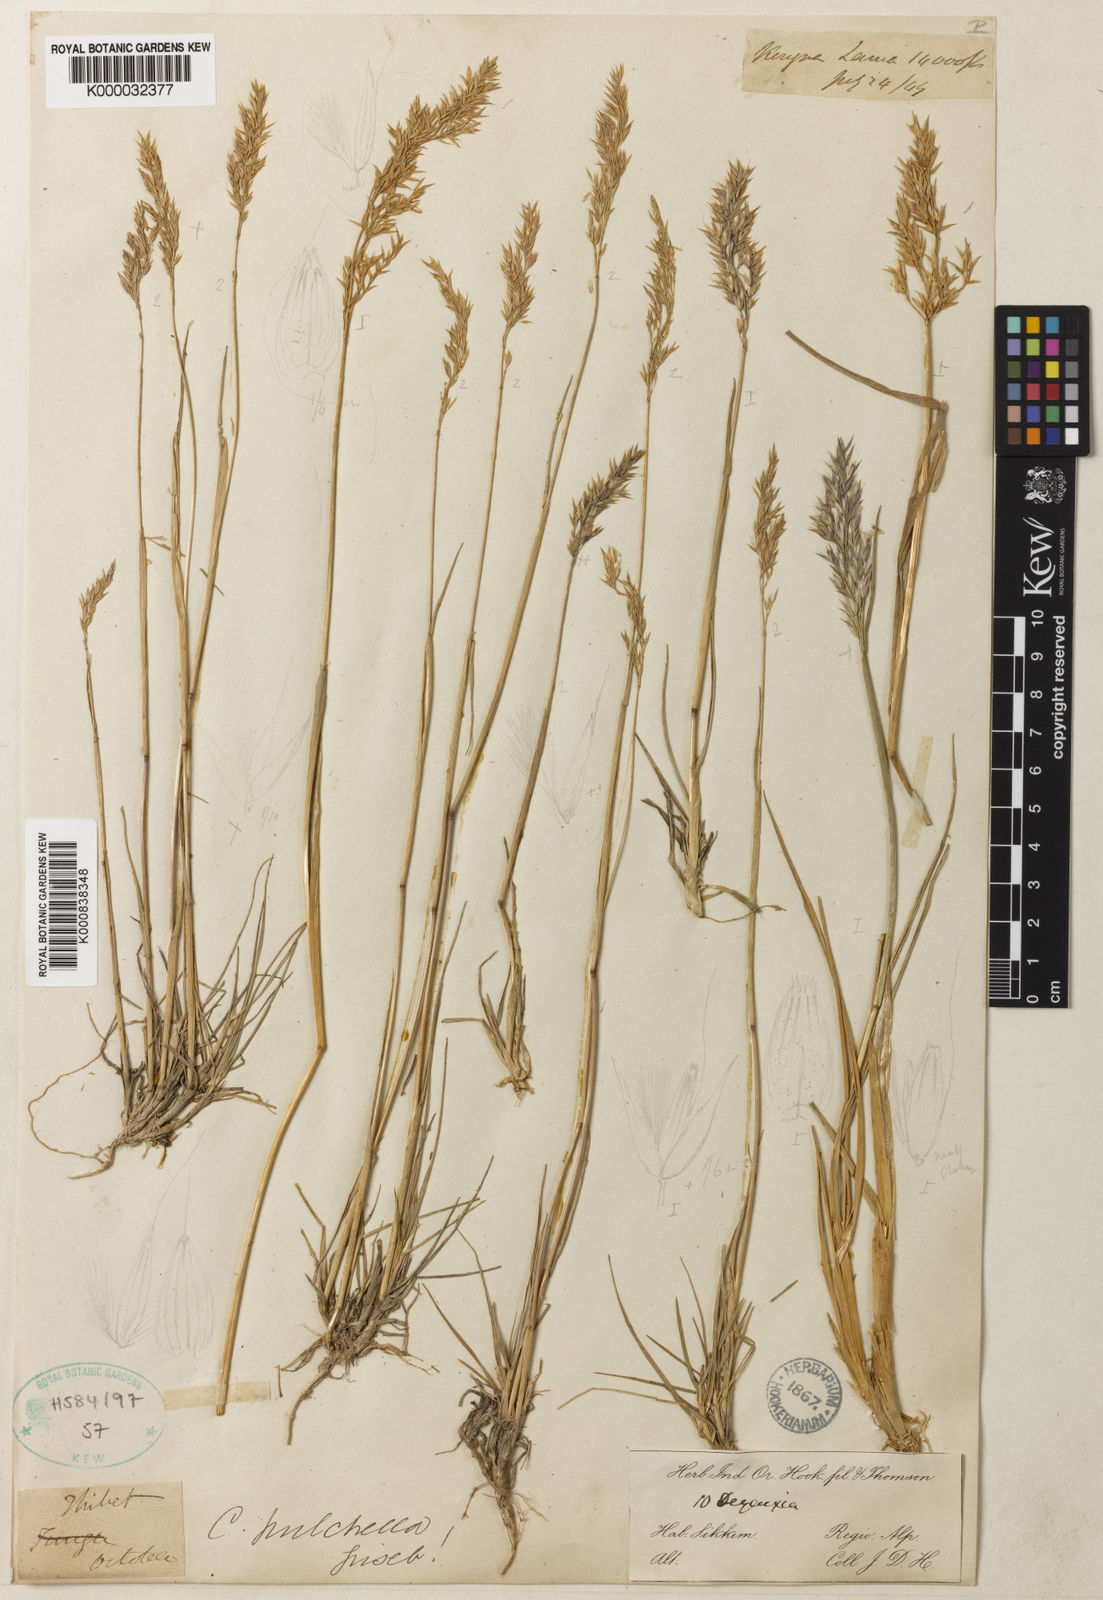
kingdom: Plantae
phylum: Tracheophyta
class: Liliopsida
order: Poales
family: Poaceae
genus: Calamagrostis
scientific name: Calamagrostis lahulensis
